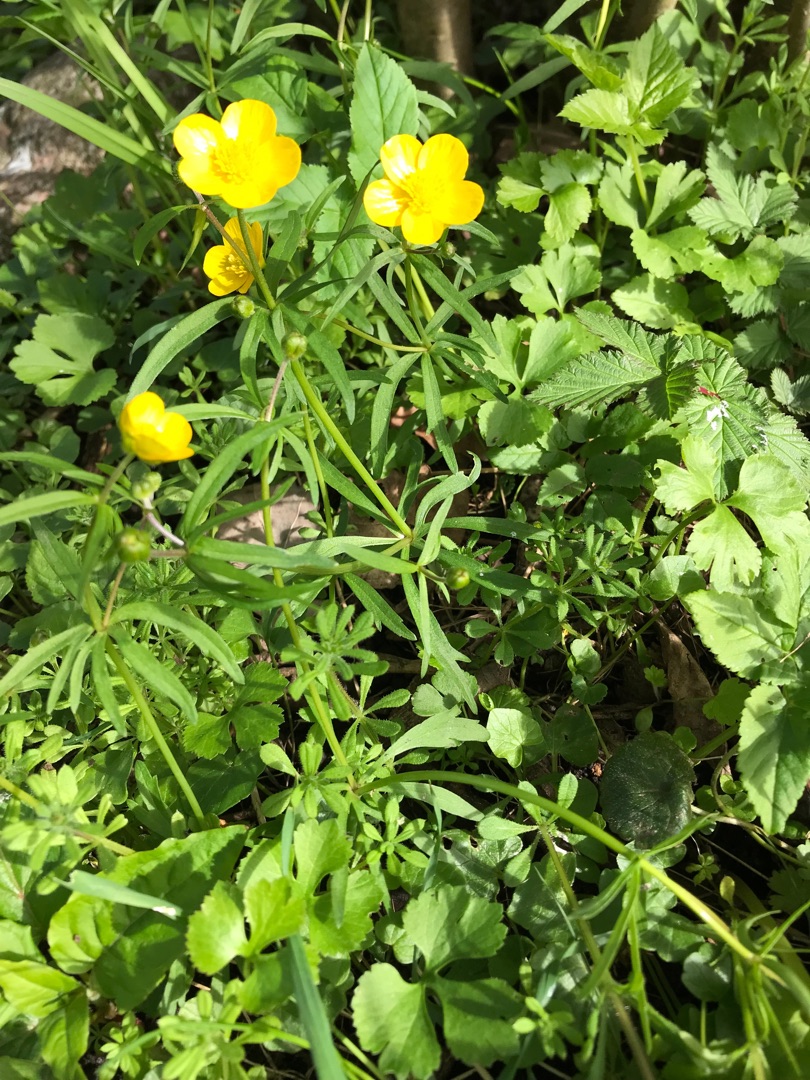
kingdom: Plantae
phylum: Tracheophyta
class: Magnoliopsida
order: Ranunculales
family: Ranunculaceae
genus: Ranunculus
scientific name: Ranunculus auricomus
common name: Nyrebladet ranunkel
